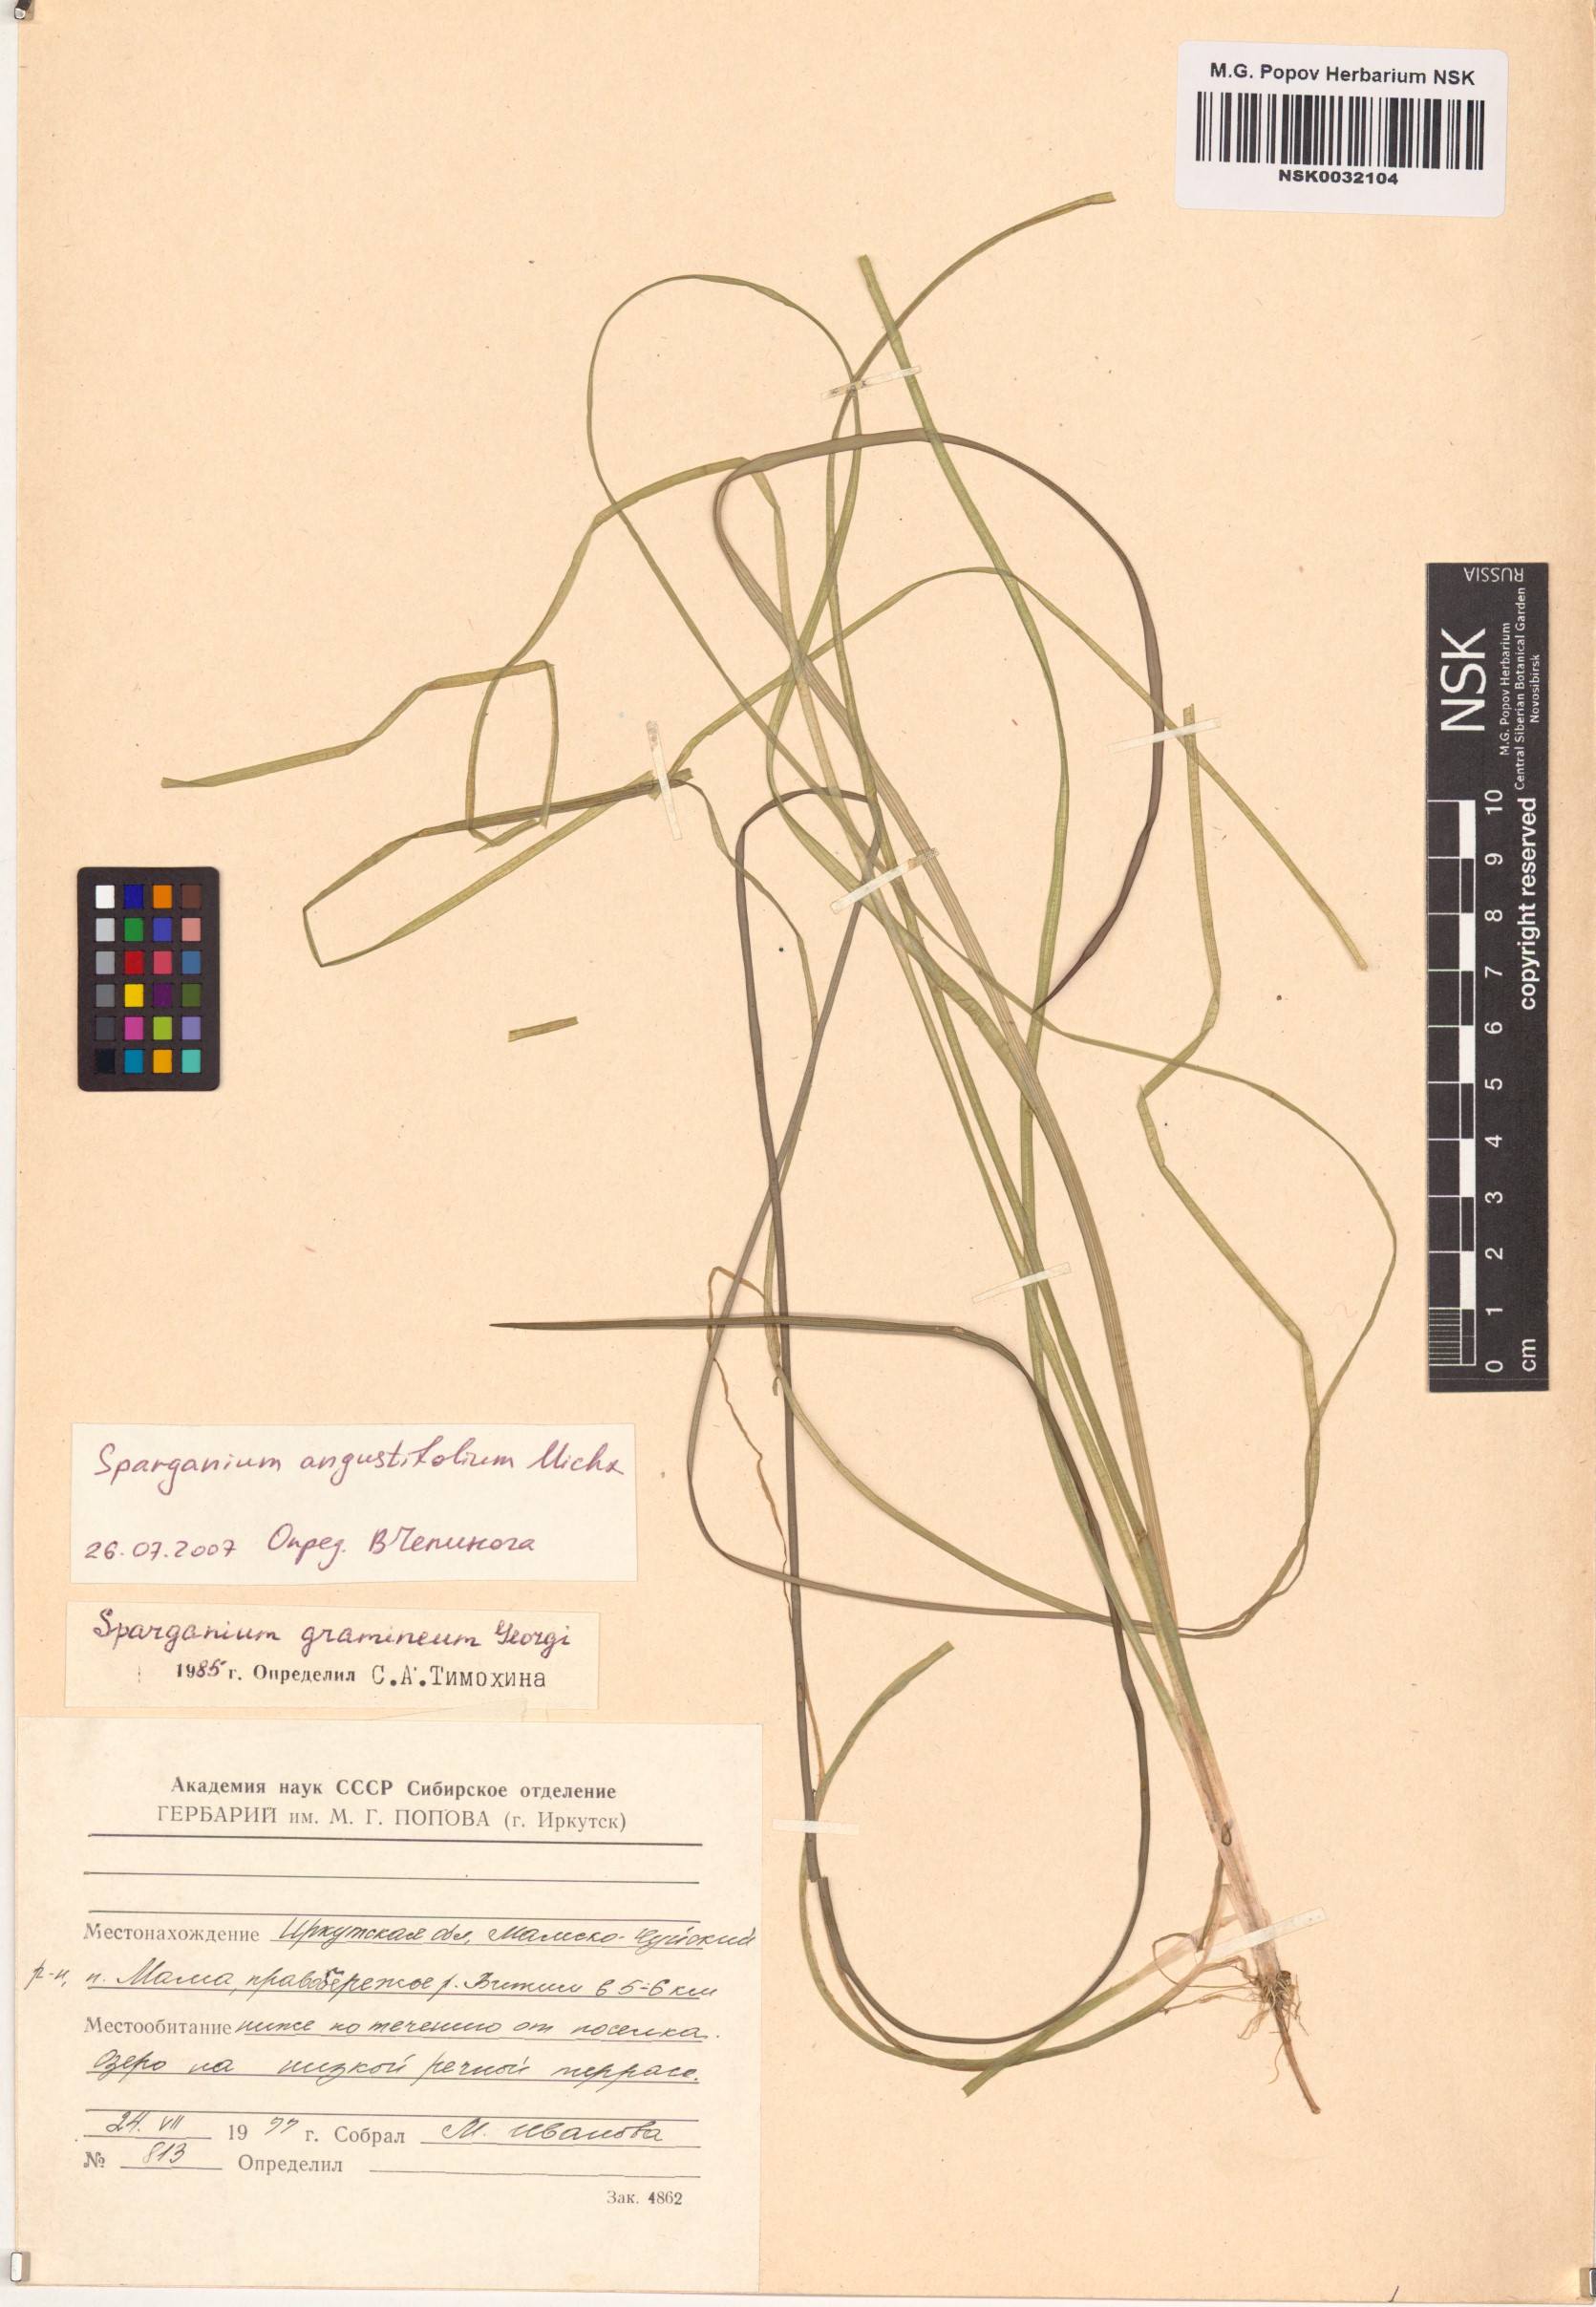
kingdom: Plantae
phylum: Tracheophyta
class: Liliopsida
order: Poales
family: Typhaceae
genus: Sparganium
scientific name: Sparganium angustifolium
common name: Floating bur-reed
